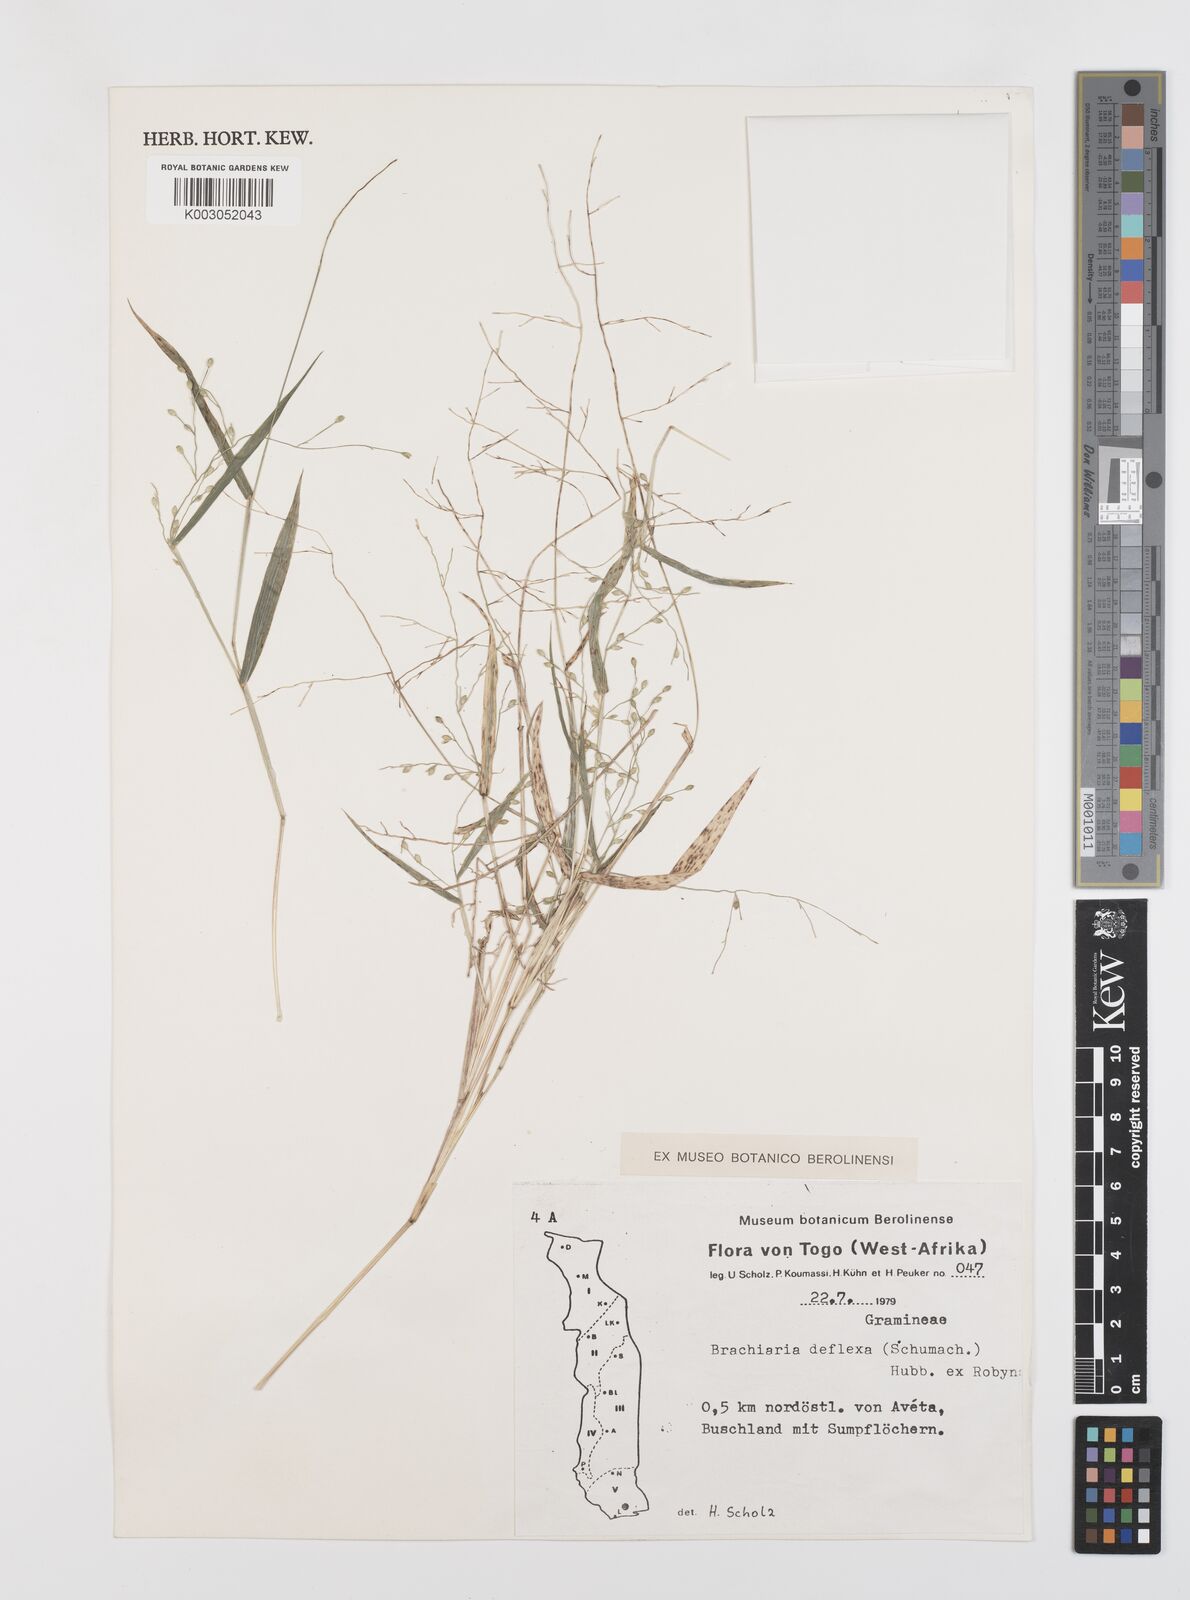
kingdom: Plantae
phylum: Tracheophyta
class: Liliopsida
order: Poales
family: Poaceae
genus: Urochloa
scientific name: Urochloa deflexa
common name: Guinea millet
